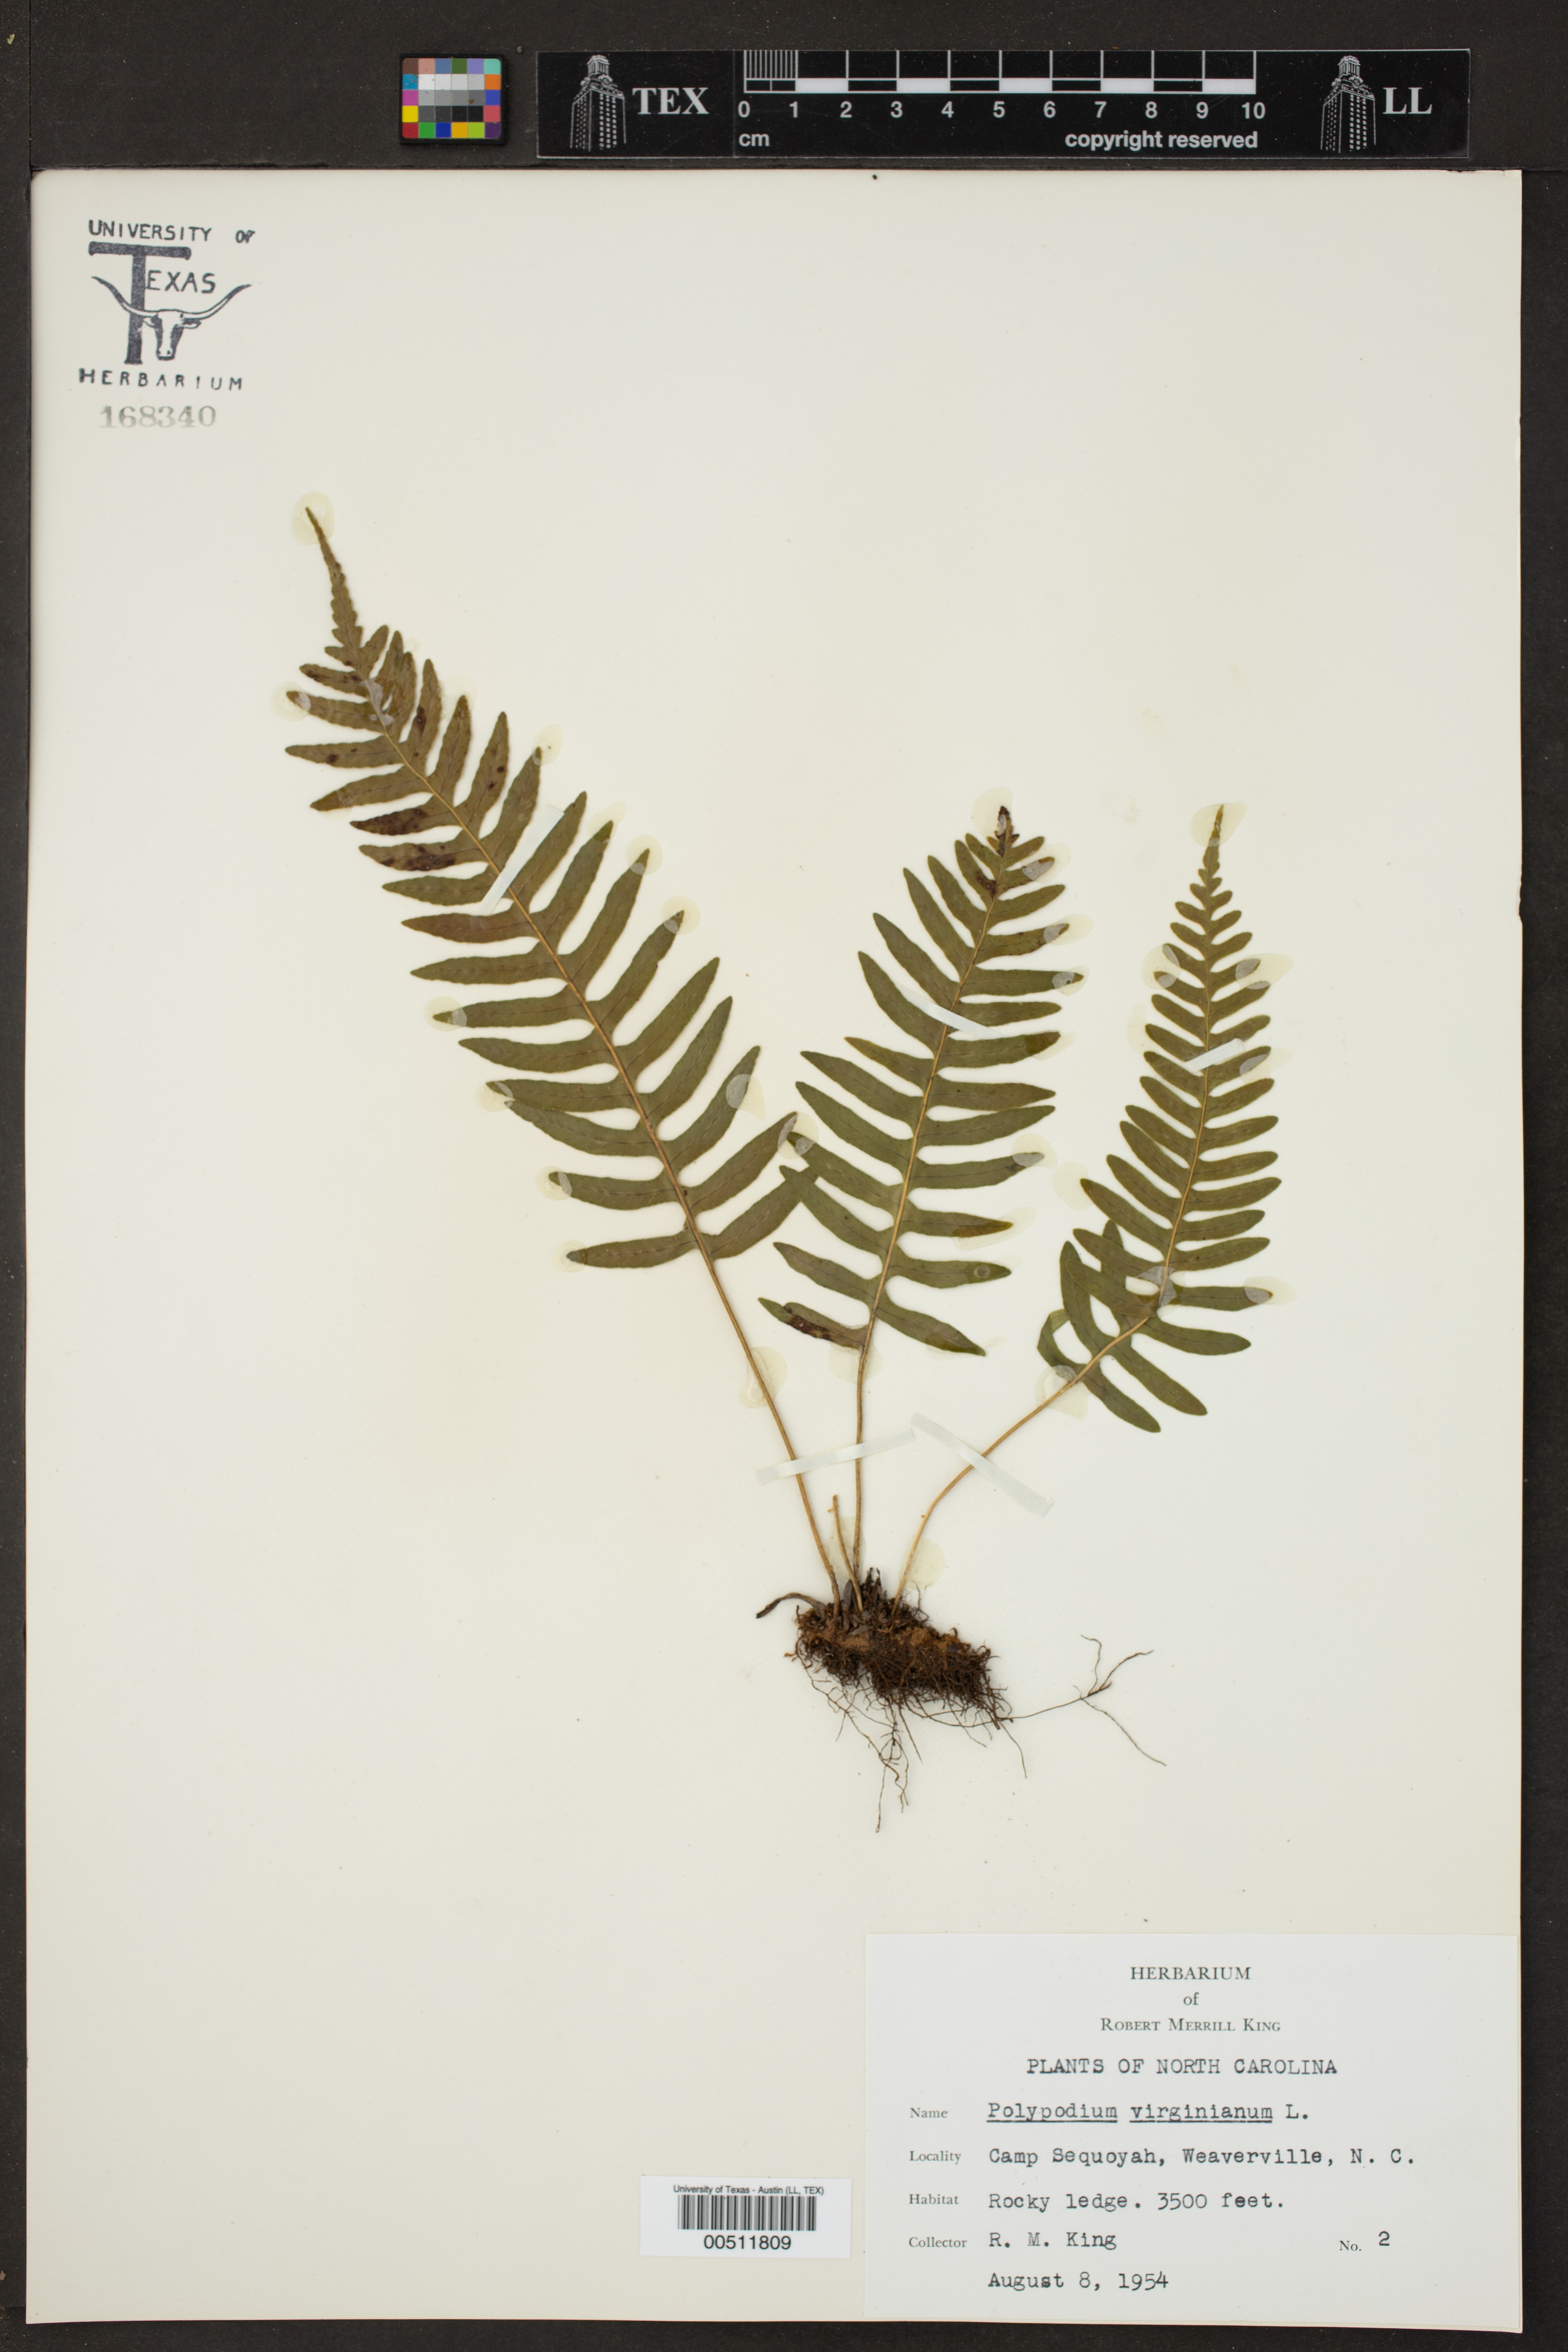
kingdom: Plantae
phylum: Tracheophyta
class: Polypodiopsida
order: Polypodiales
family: Polypodiaceae
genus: Polypodium
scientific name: Polypodium virginianum
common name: American wall fern
